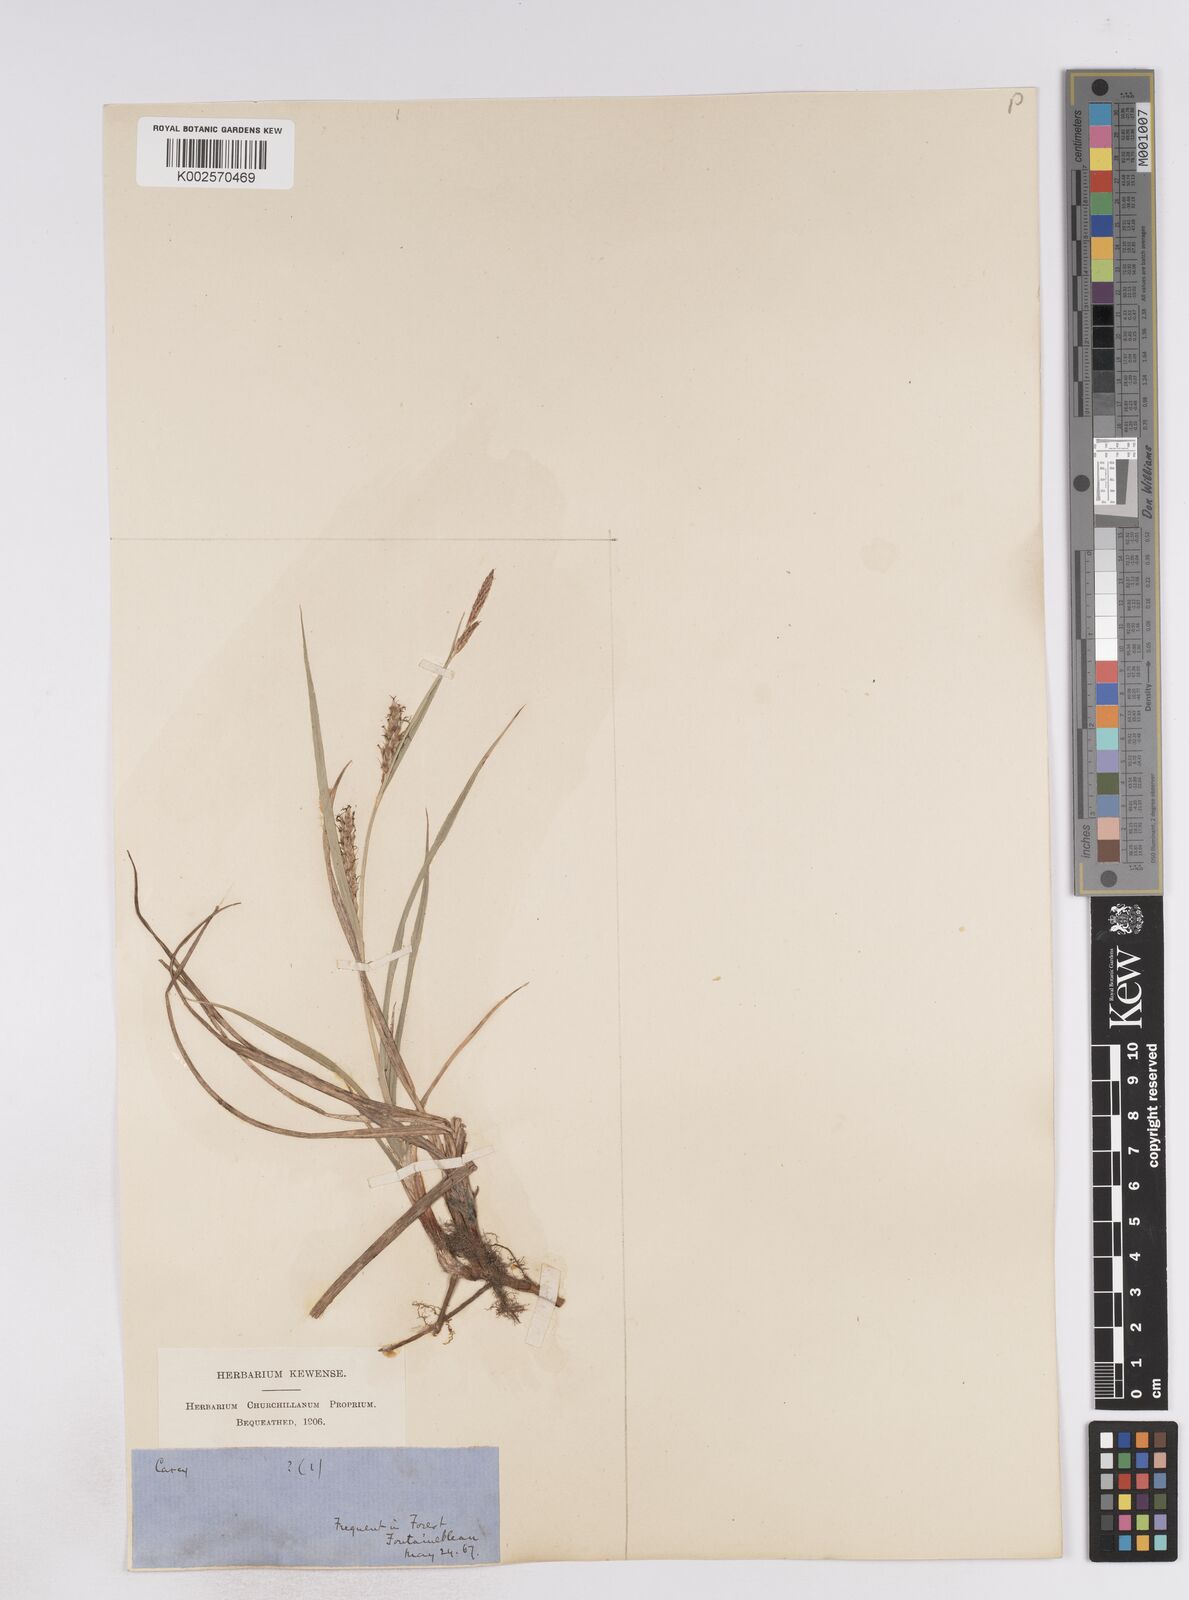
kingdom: Plantae
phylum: Tracheophyta
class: Liliopsida
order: Poales
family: Cyperaceae
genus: Carex
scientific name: Carex pallescens
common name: Pale sedge
